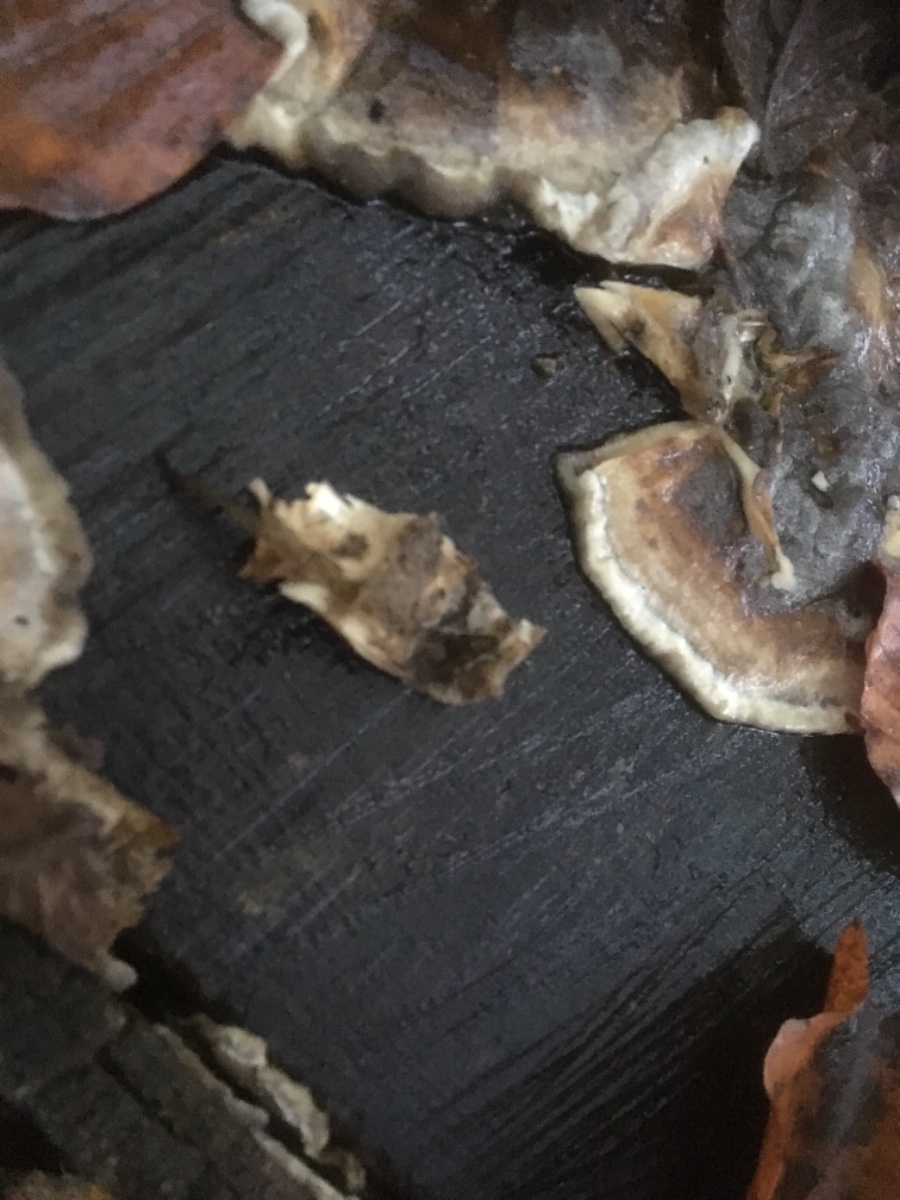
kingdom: Fungi
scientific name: Fungi
